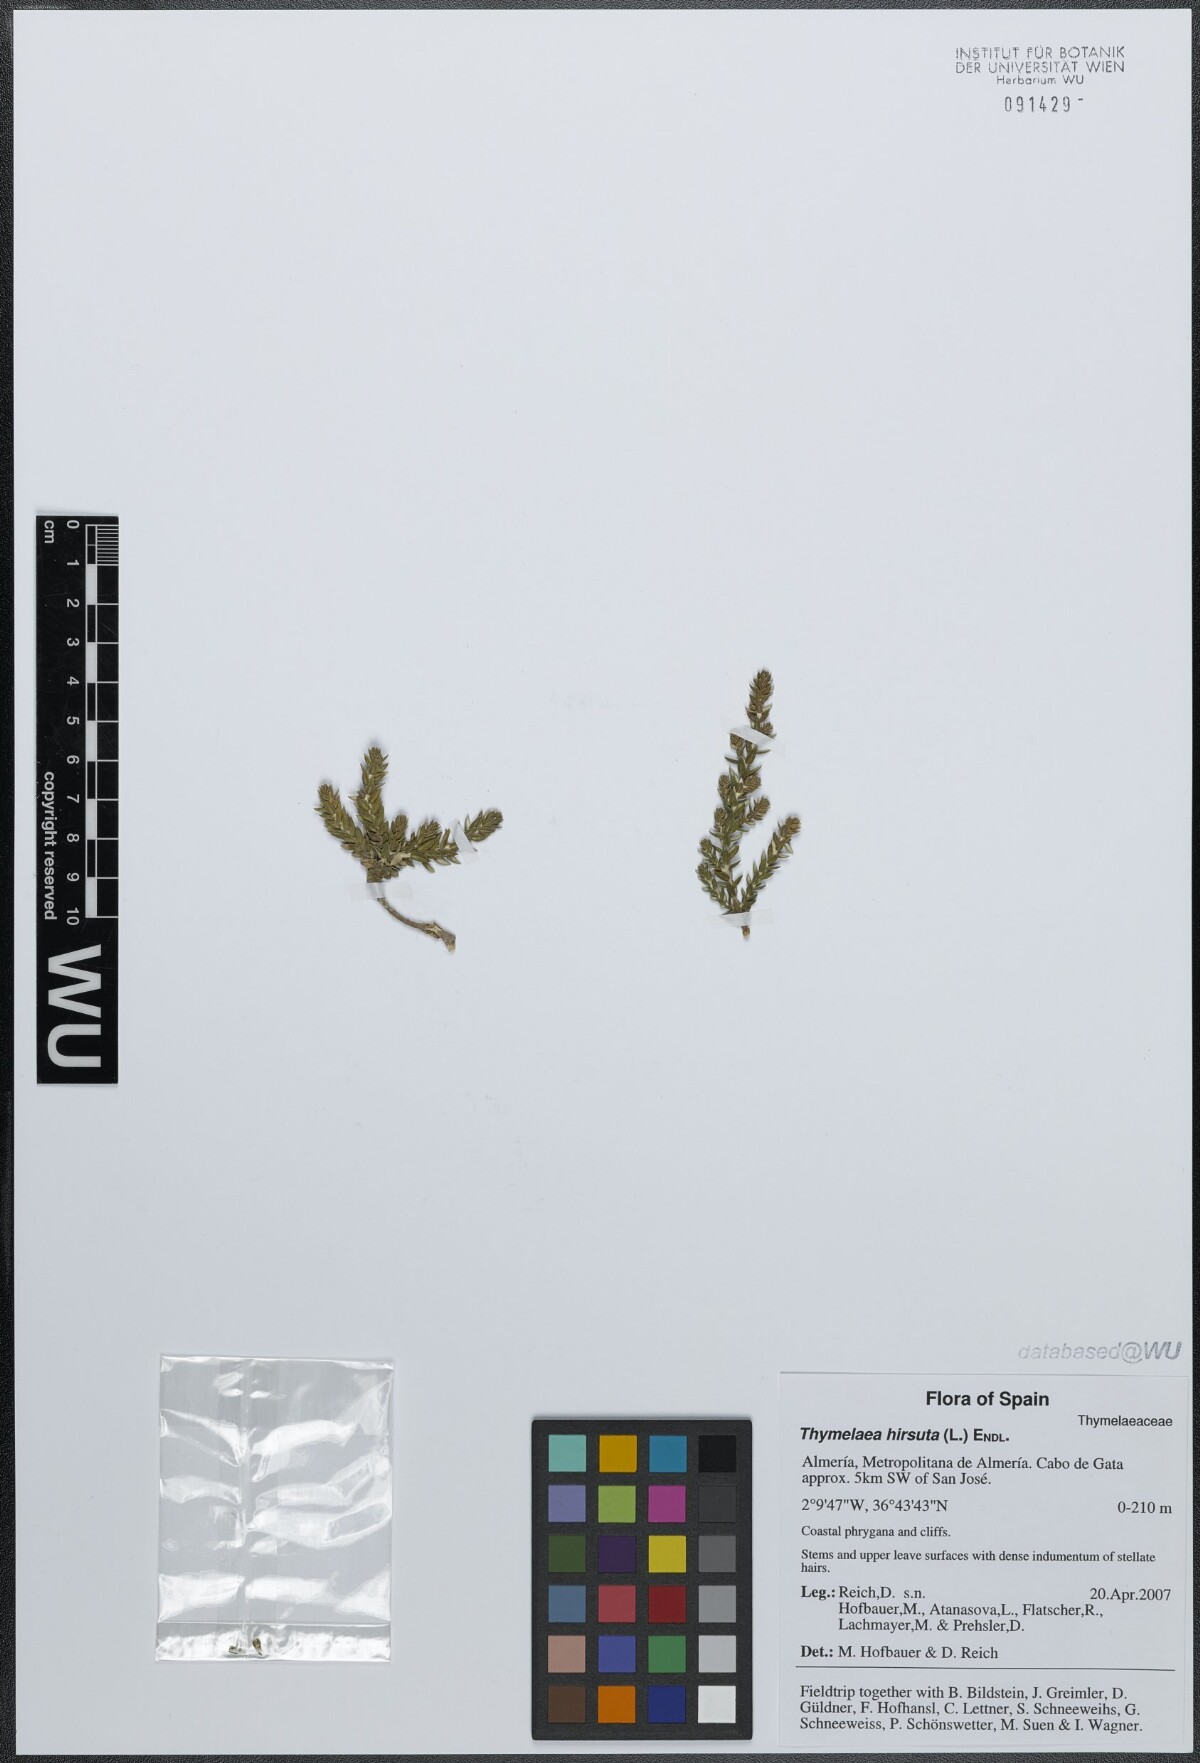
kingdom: Plantae
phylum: Tracheophyta
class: Magnoliopsida
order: Malvales
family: Thymelaeaceae
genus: Thymelaea
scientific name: Thymelaea hirsuta
